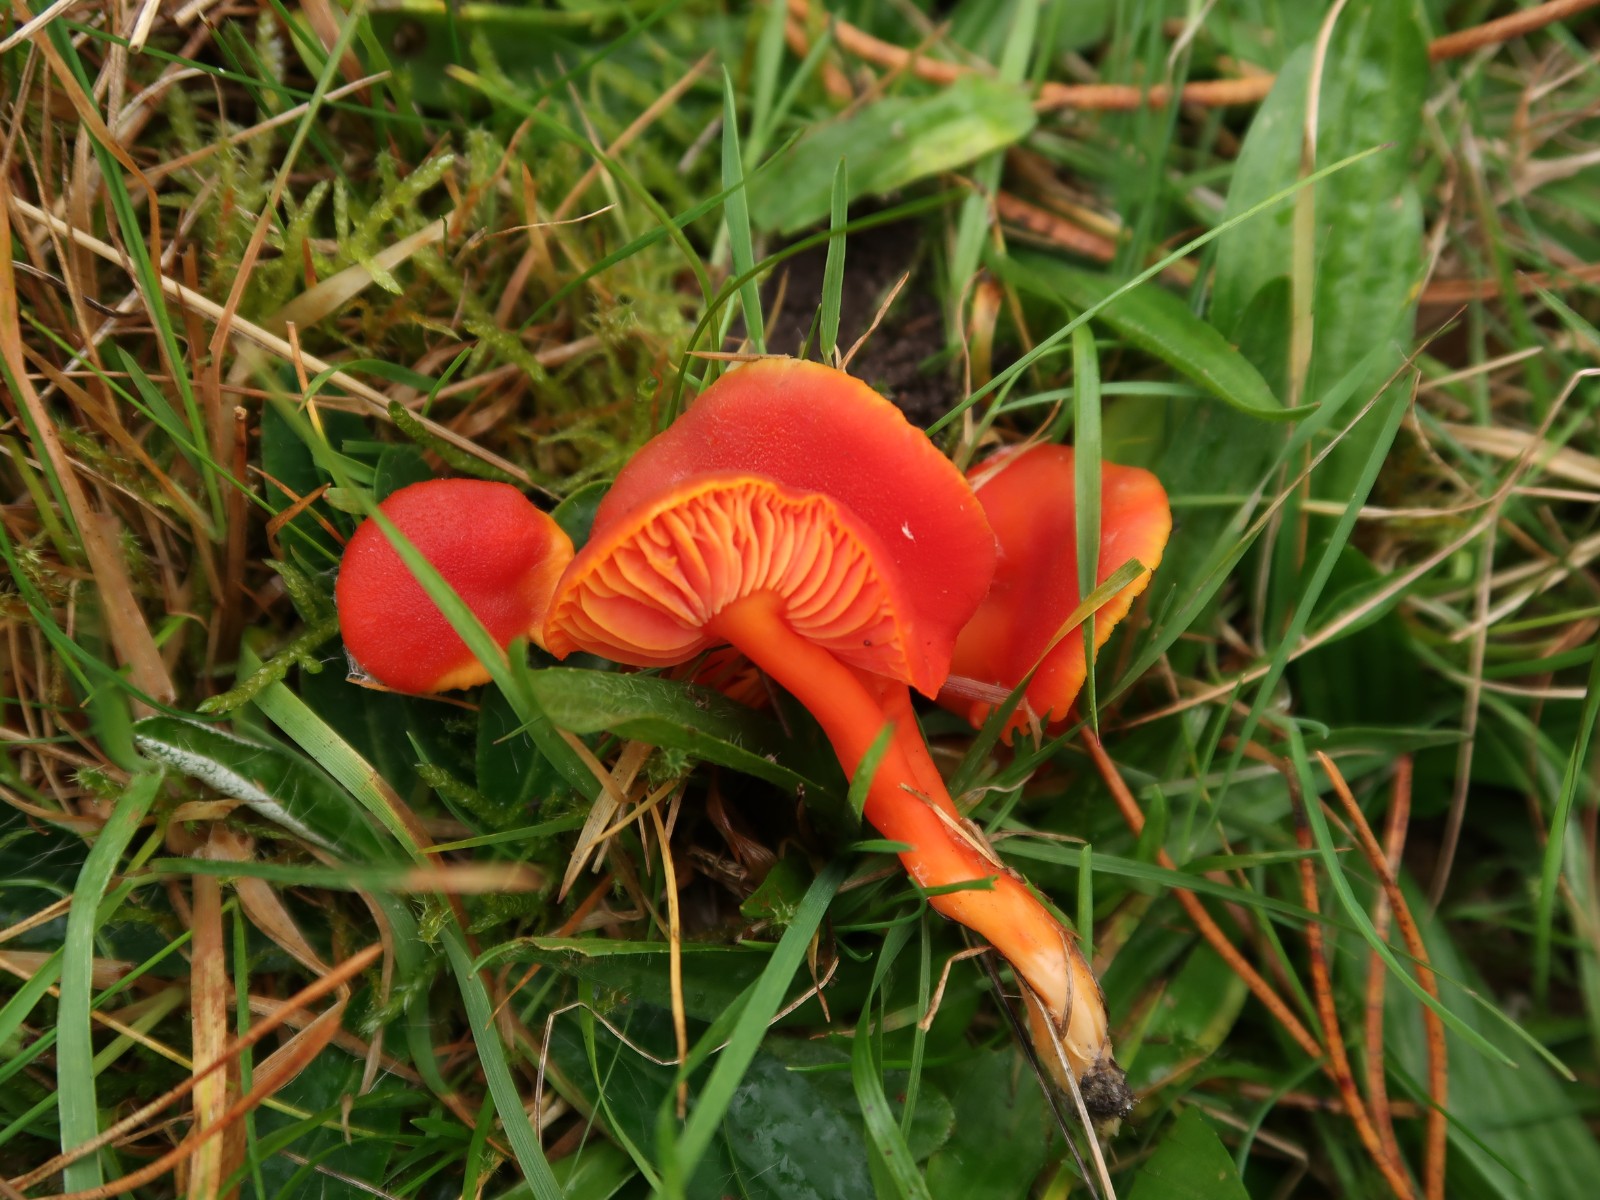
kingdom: Fungi
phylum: Basidiomycota
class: Agaricomycetes
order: Agaricales
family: Hygrophoraceae
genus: Hygrocybe
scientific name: Hygrocybe miniata
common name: mønje-vokshat
